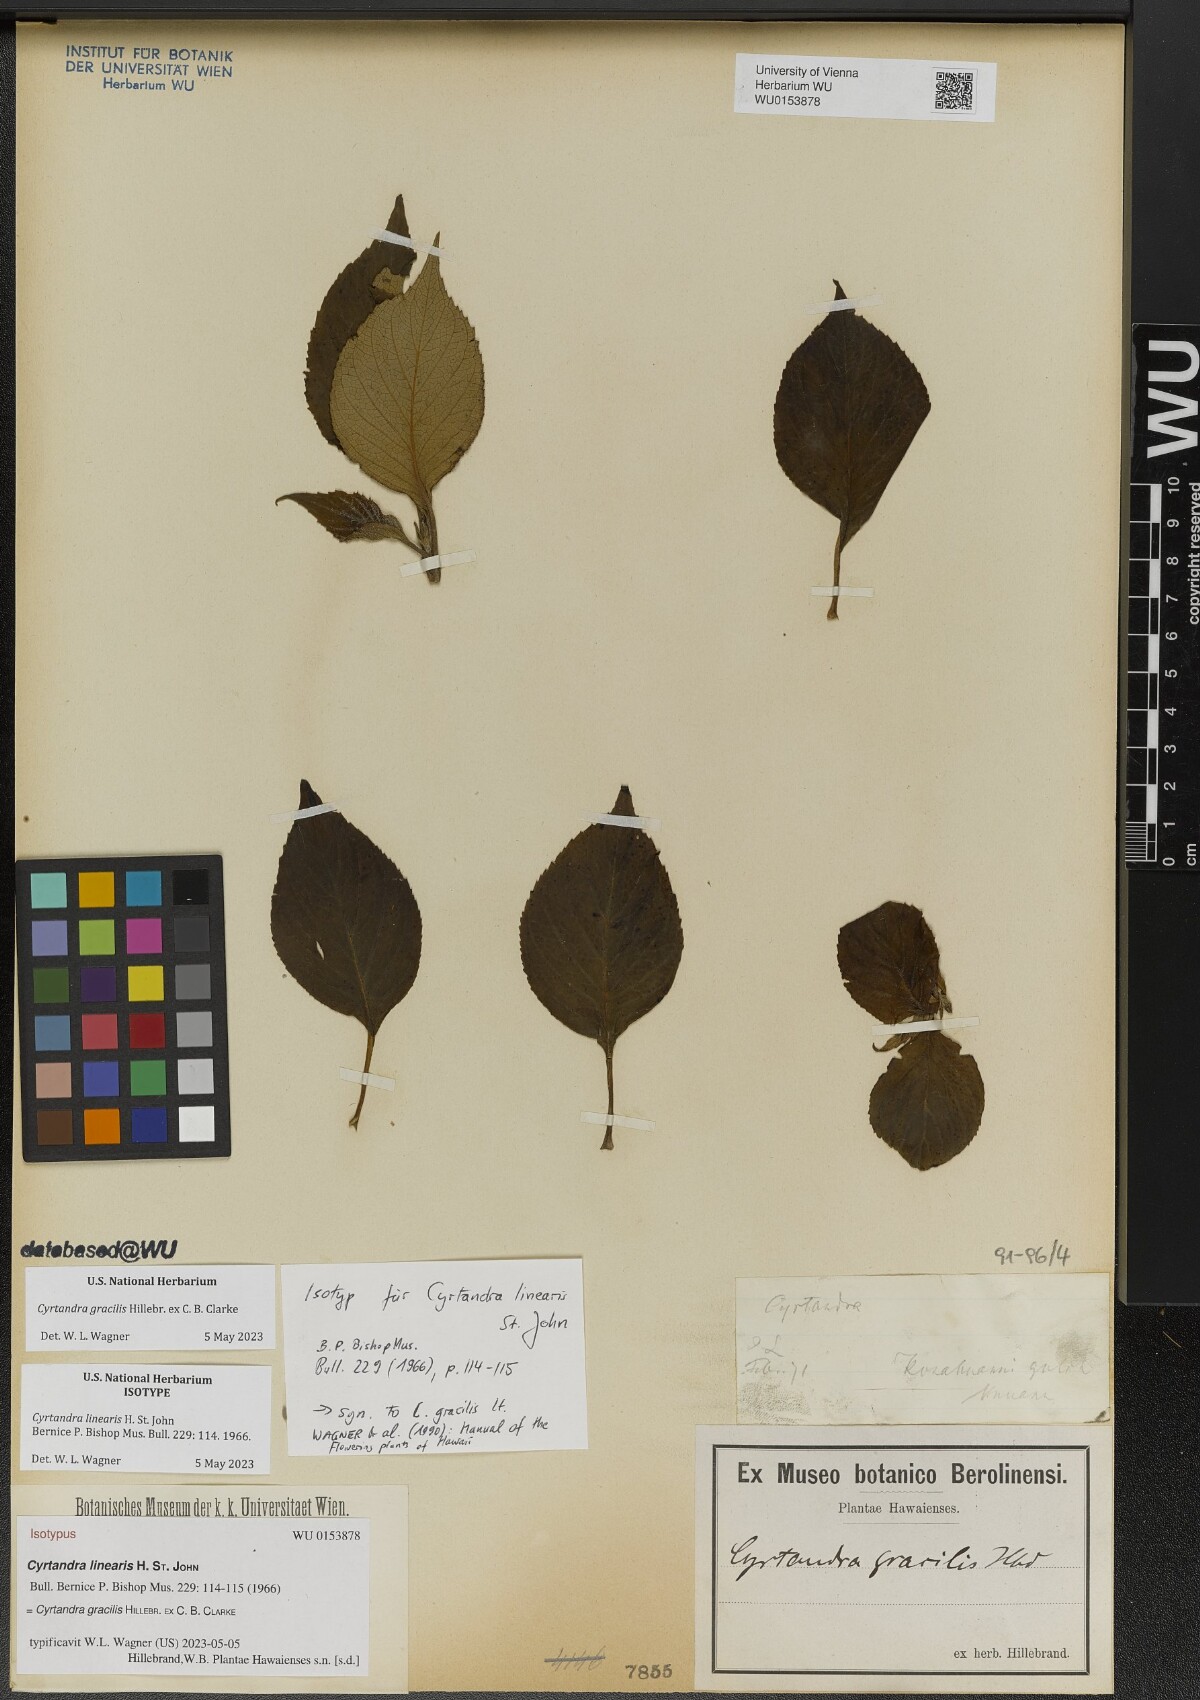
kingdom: Plantae
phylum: Tracheophyta
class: Magnoliopsida
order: Lamiales
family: Gesneriaceae
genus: Cyrtandra
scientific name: Cyrtandra gracilis
